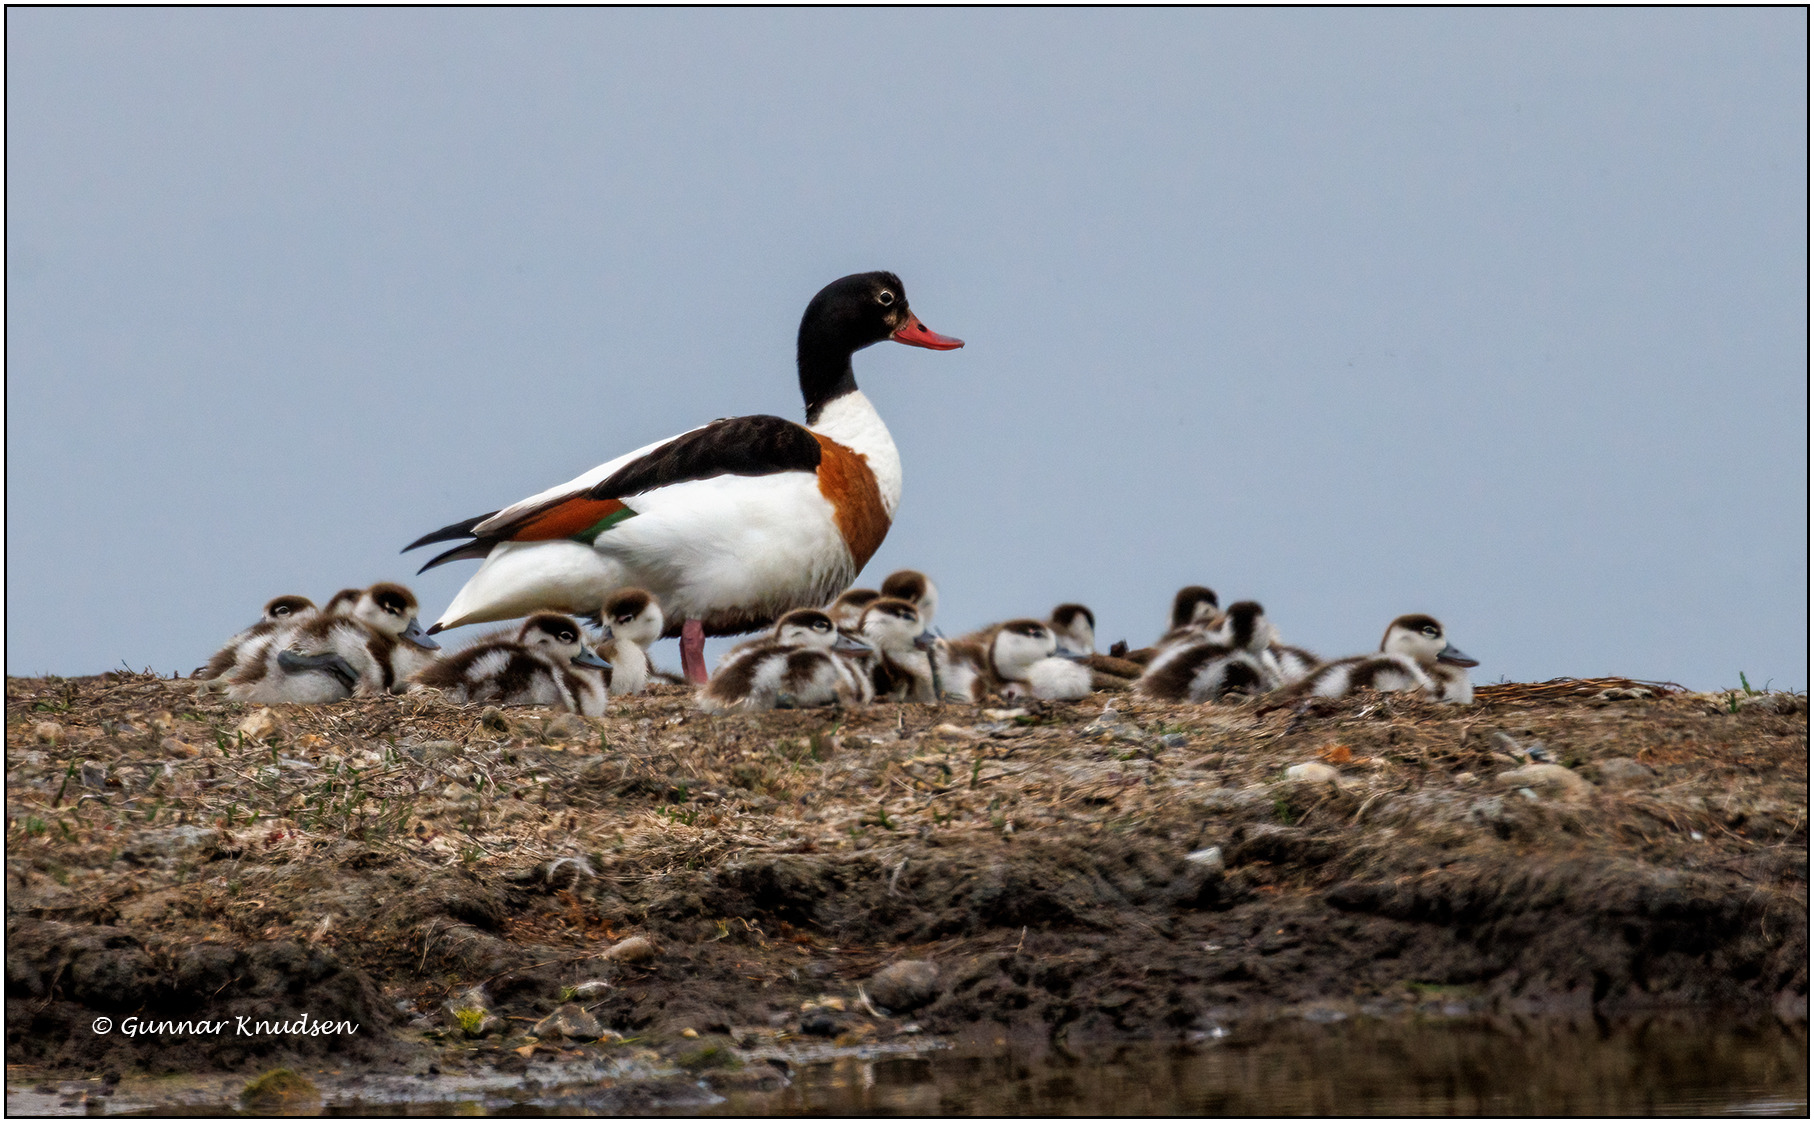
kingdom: Animalia
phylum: Chordata
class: Aves
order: Anseriformes
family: Anatidae
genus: Tadorna
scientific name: Tadorna tadorna
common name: Gravand
